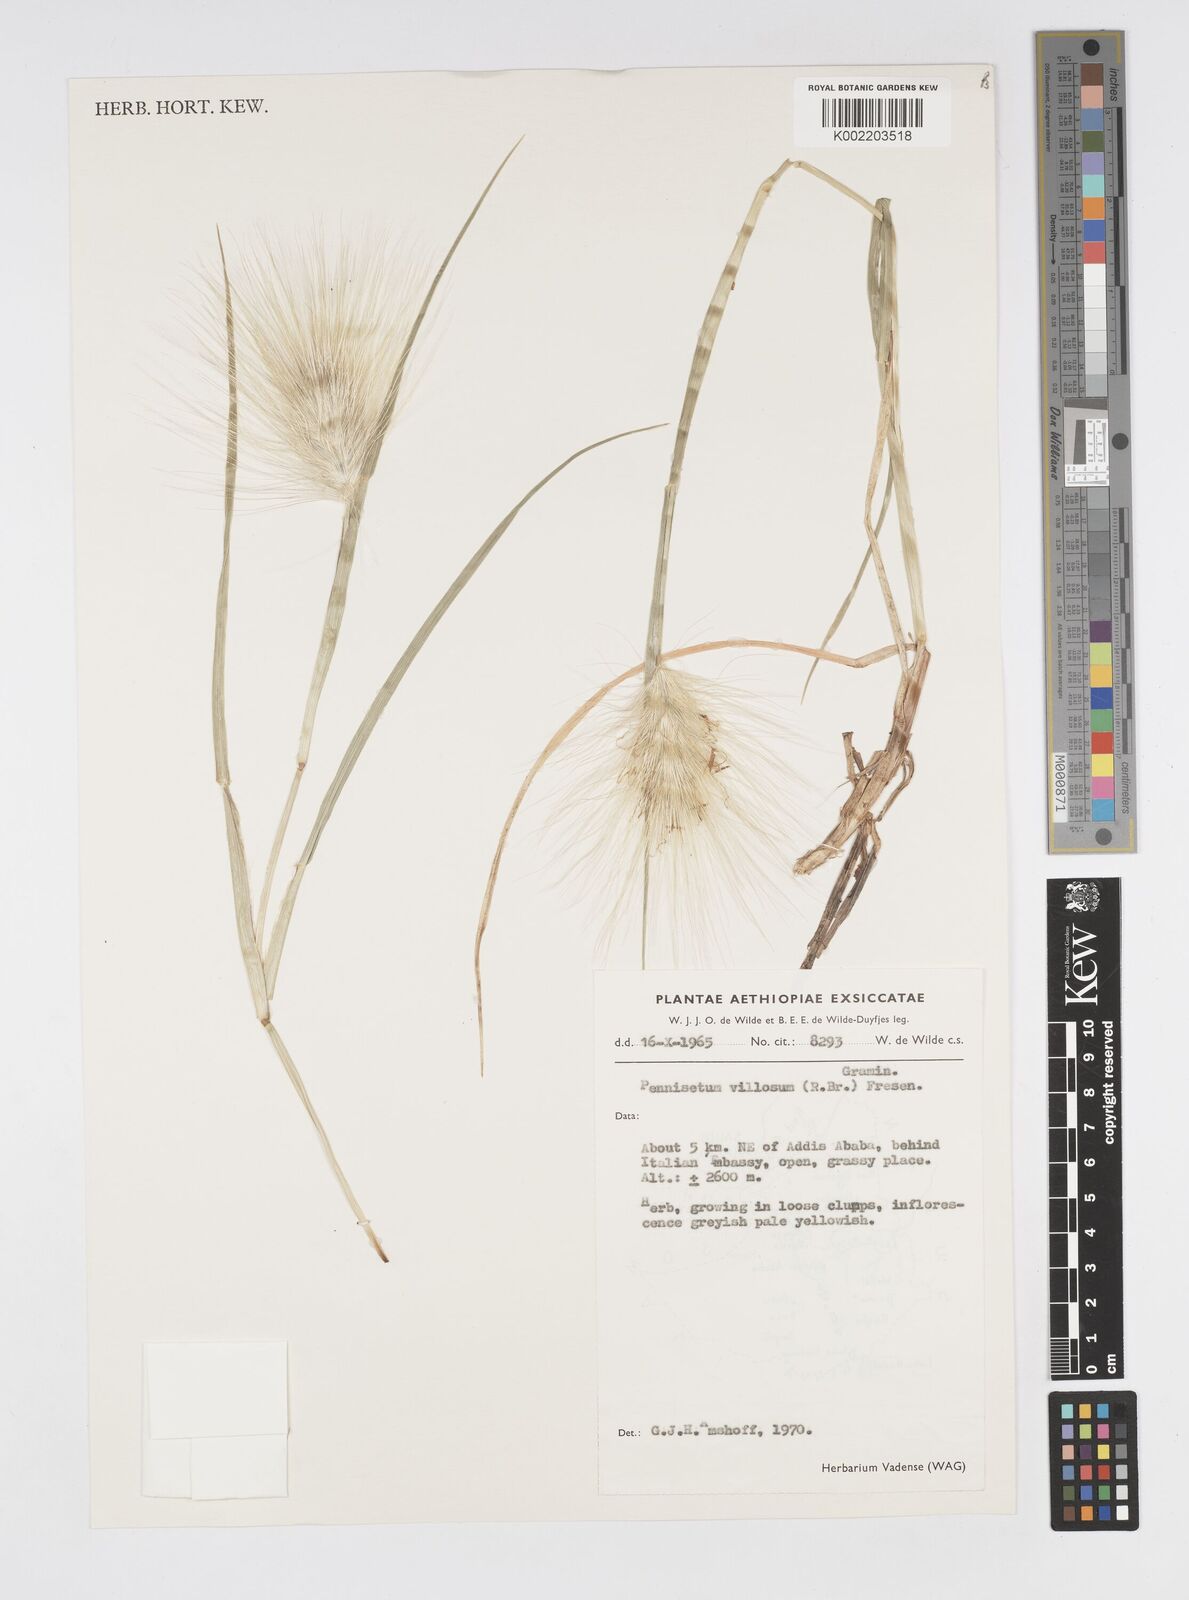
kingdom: Plantae
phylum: Tracheophyta
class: Liliopsida
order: Poales
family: Poaceae
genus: Cenchrus
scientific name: Cenchrus longisetus
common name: Feathertop
